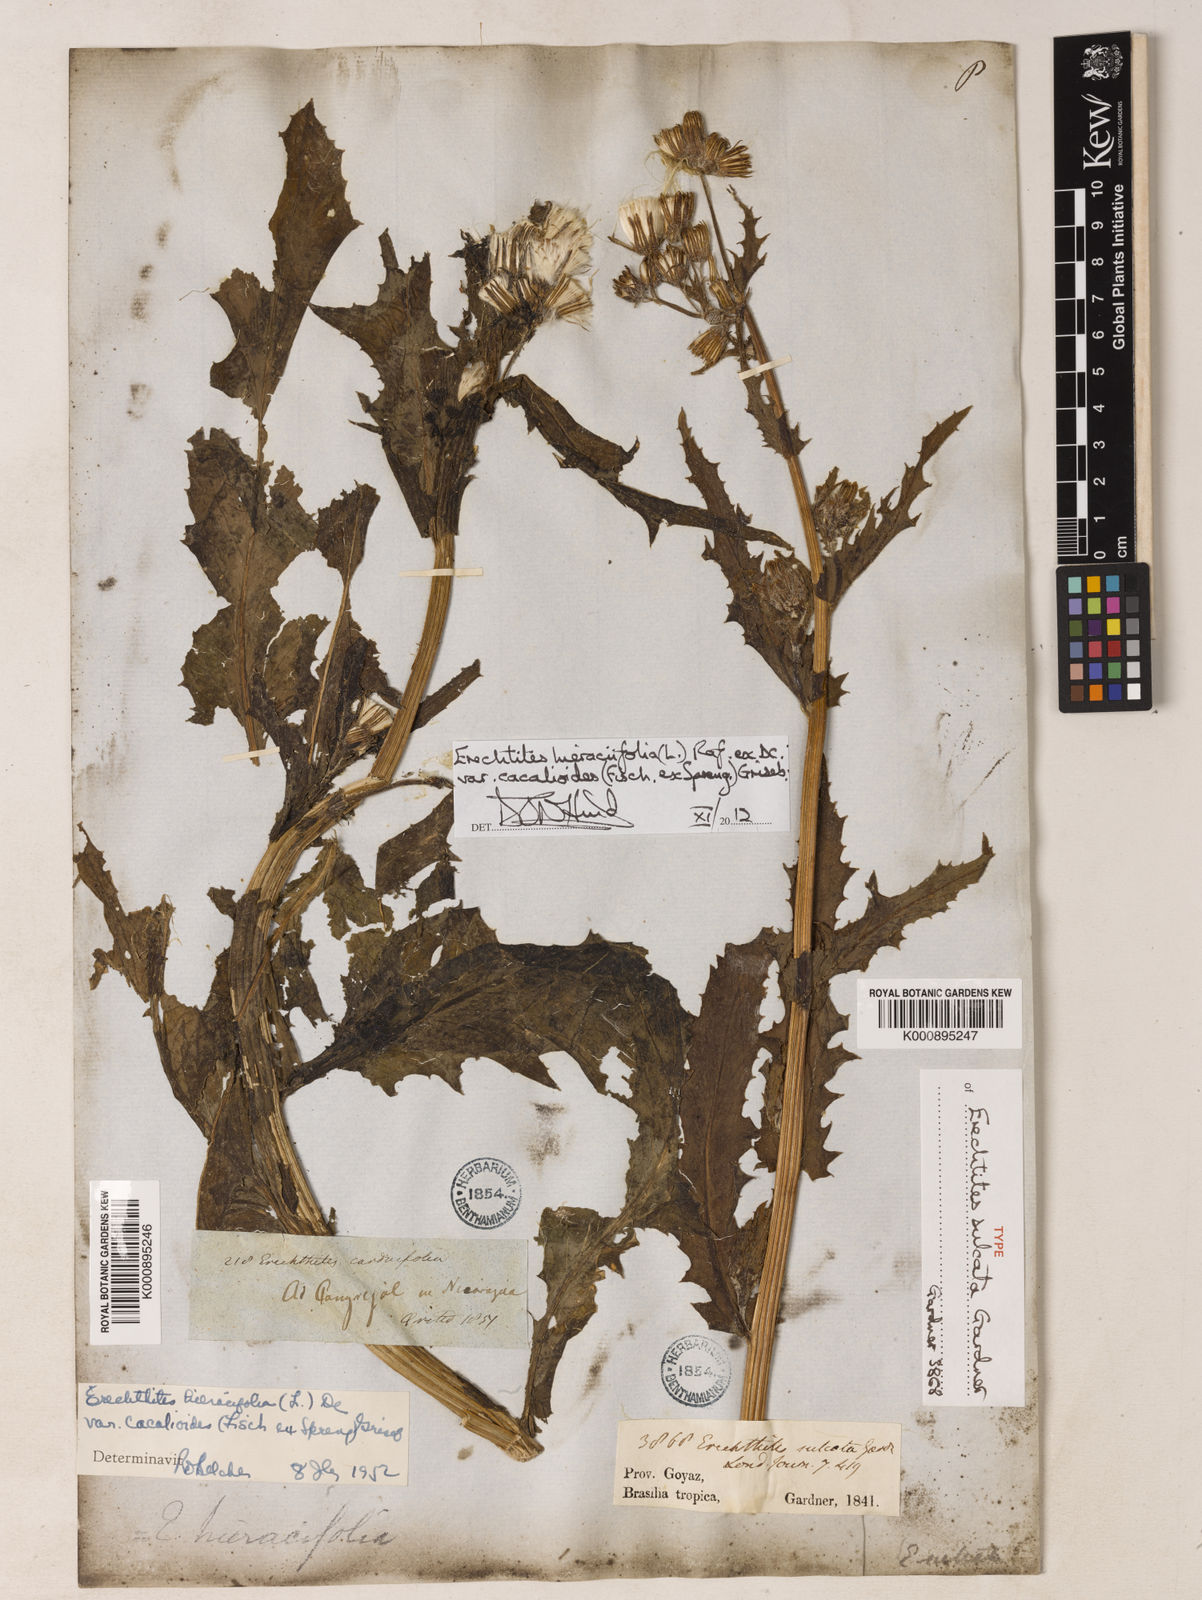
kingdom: Plantae
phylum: Tracheophyta
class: Magnoliopsida
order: Asterales
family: Asteraceae
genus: Erechtites
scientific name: Erechtites hieraciifolius
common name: American burnweed
